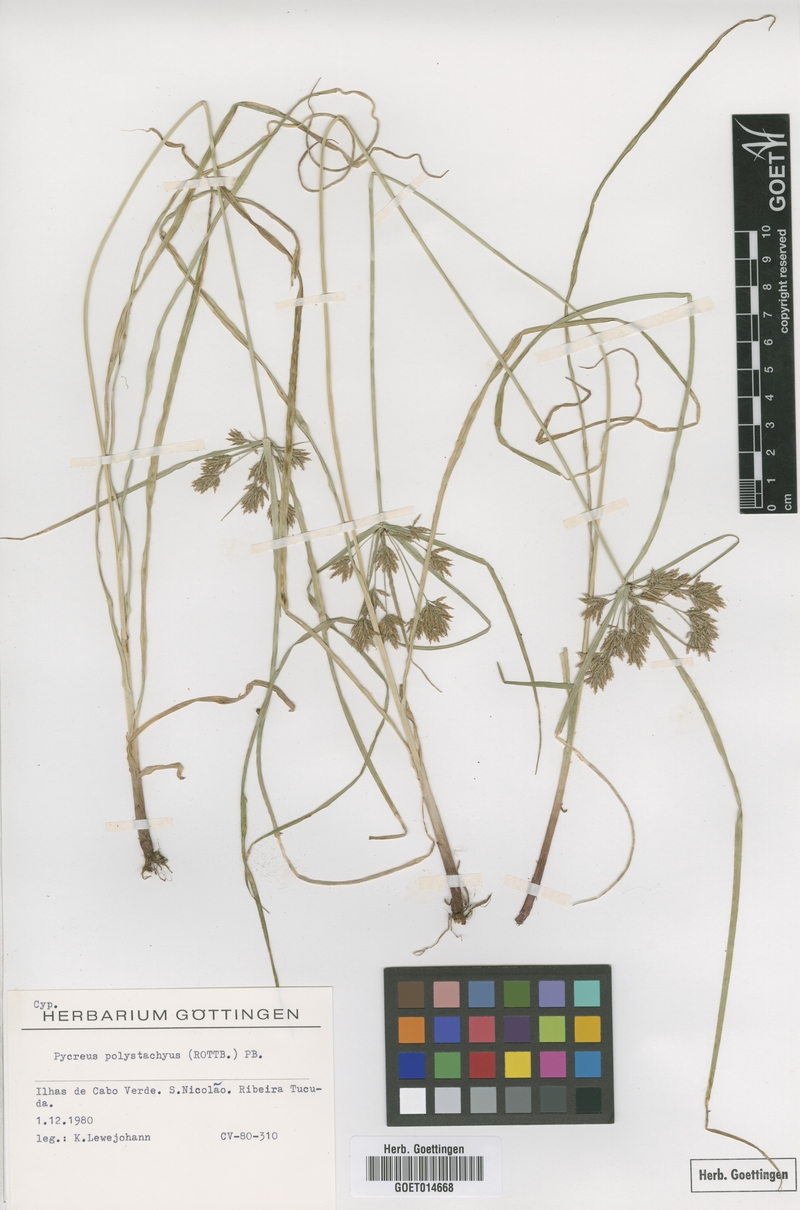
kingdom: Plantae
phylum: Tracheophyta
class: Liliopsida
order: Poales
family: Cyperaceae
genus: Cyperus
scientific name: Cyperus polystachyos
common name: Bunchy flat sedge
